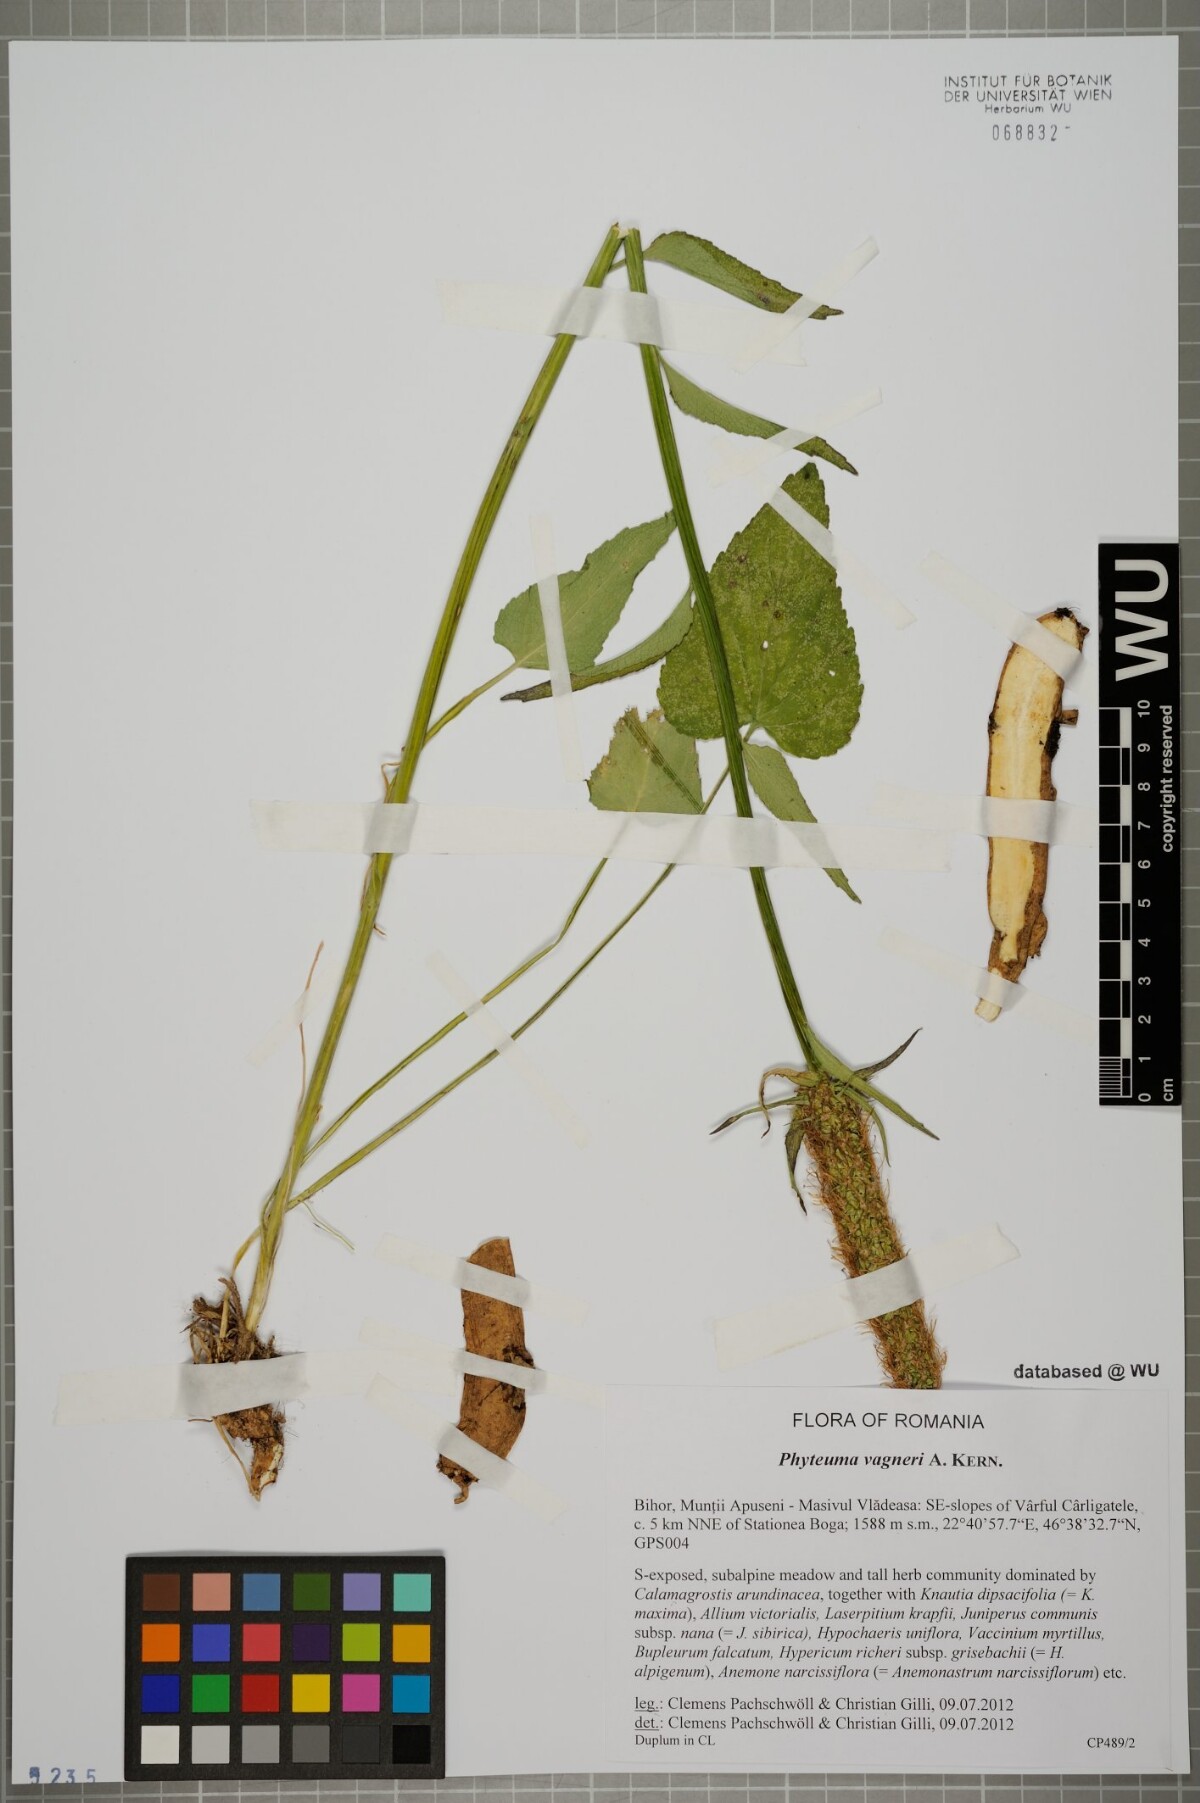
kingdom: Plantae
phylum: Tracheophyta
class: Magnoliopsida
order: Asterales
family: Campanulaceae
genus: Phyteuma
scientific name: Phyteuma vagneri
